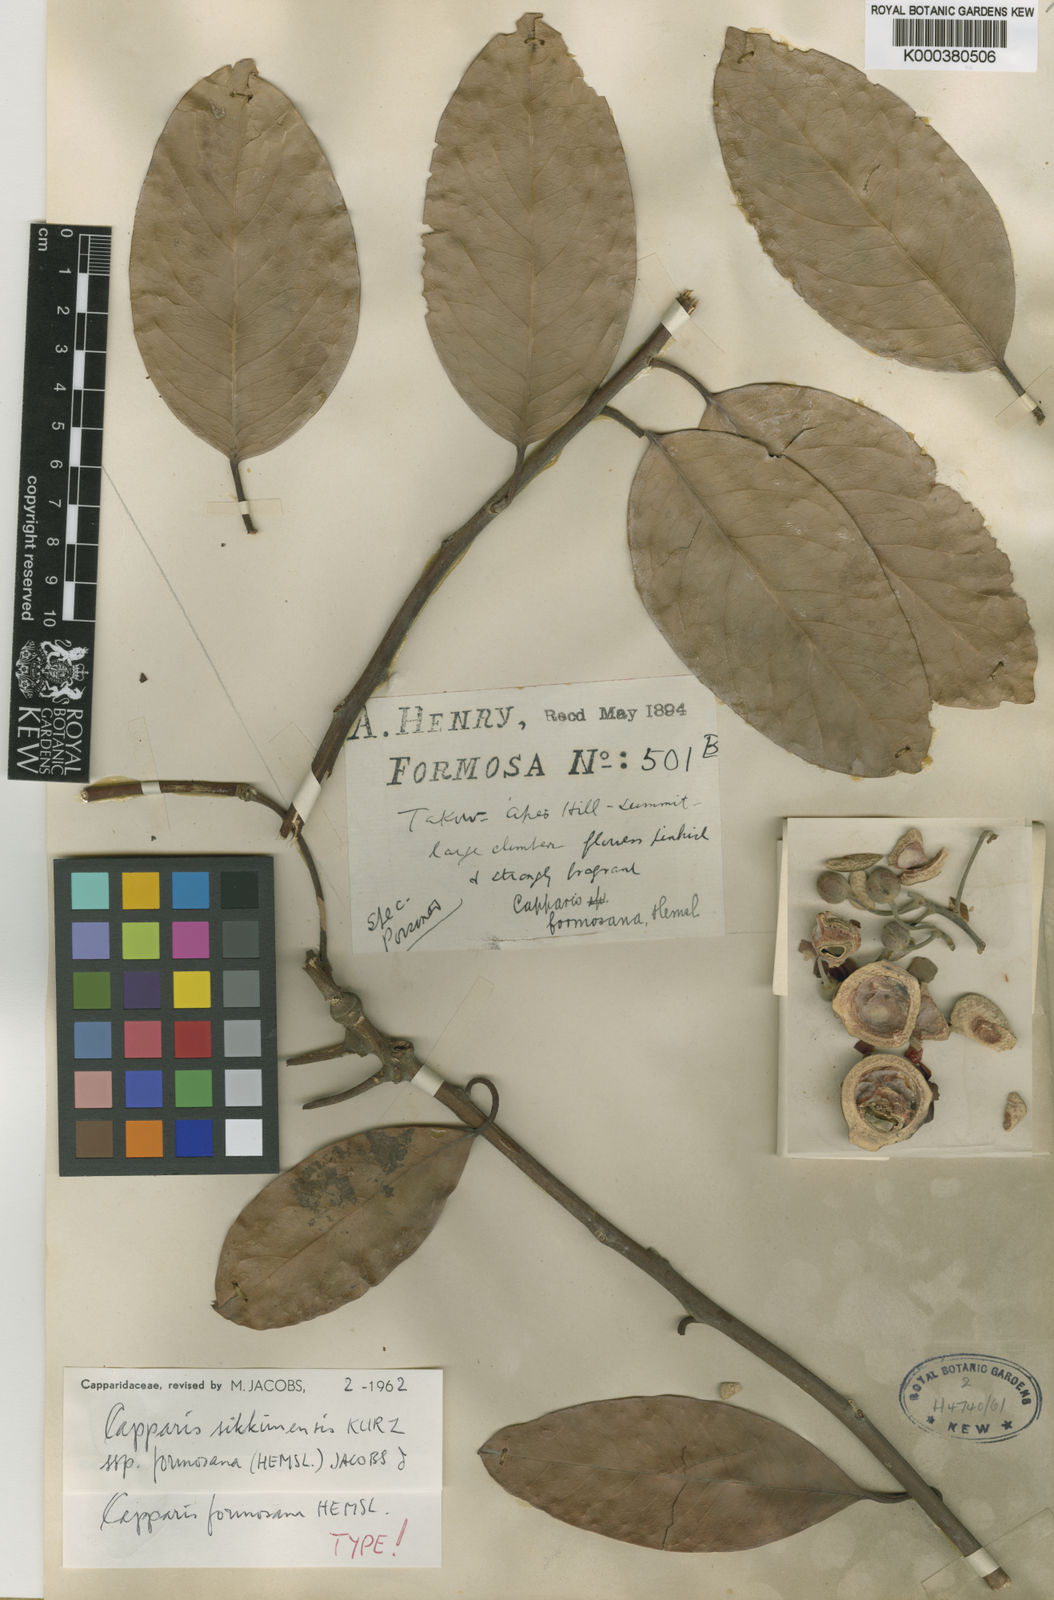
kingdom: Plantae
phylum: Tracheophyta
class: Magnoliopsida
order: Brassicales
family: Capparaceae
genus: Capparis
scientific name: Capparis formosana
